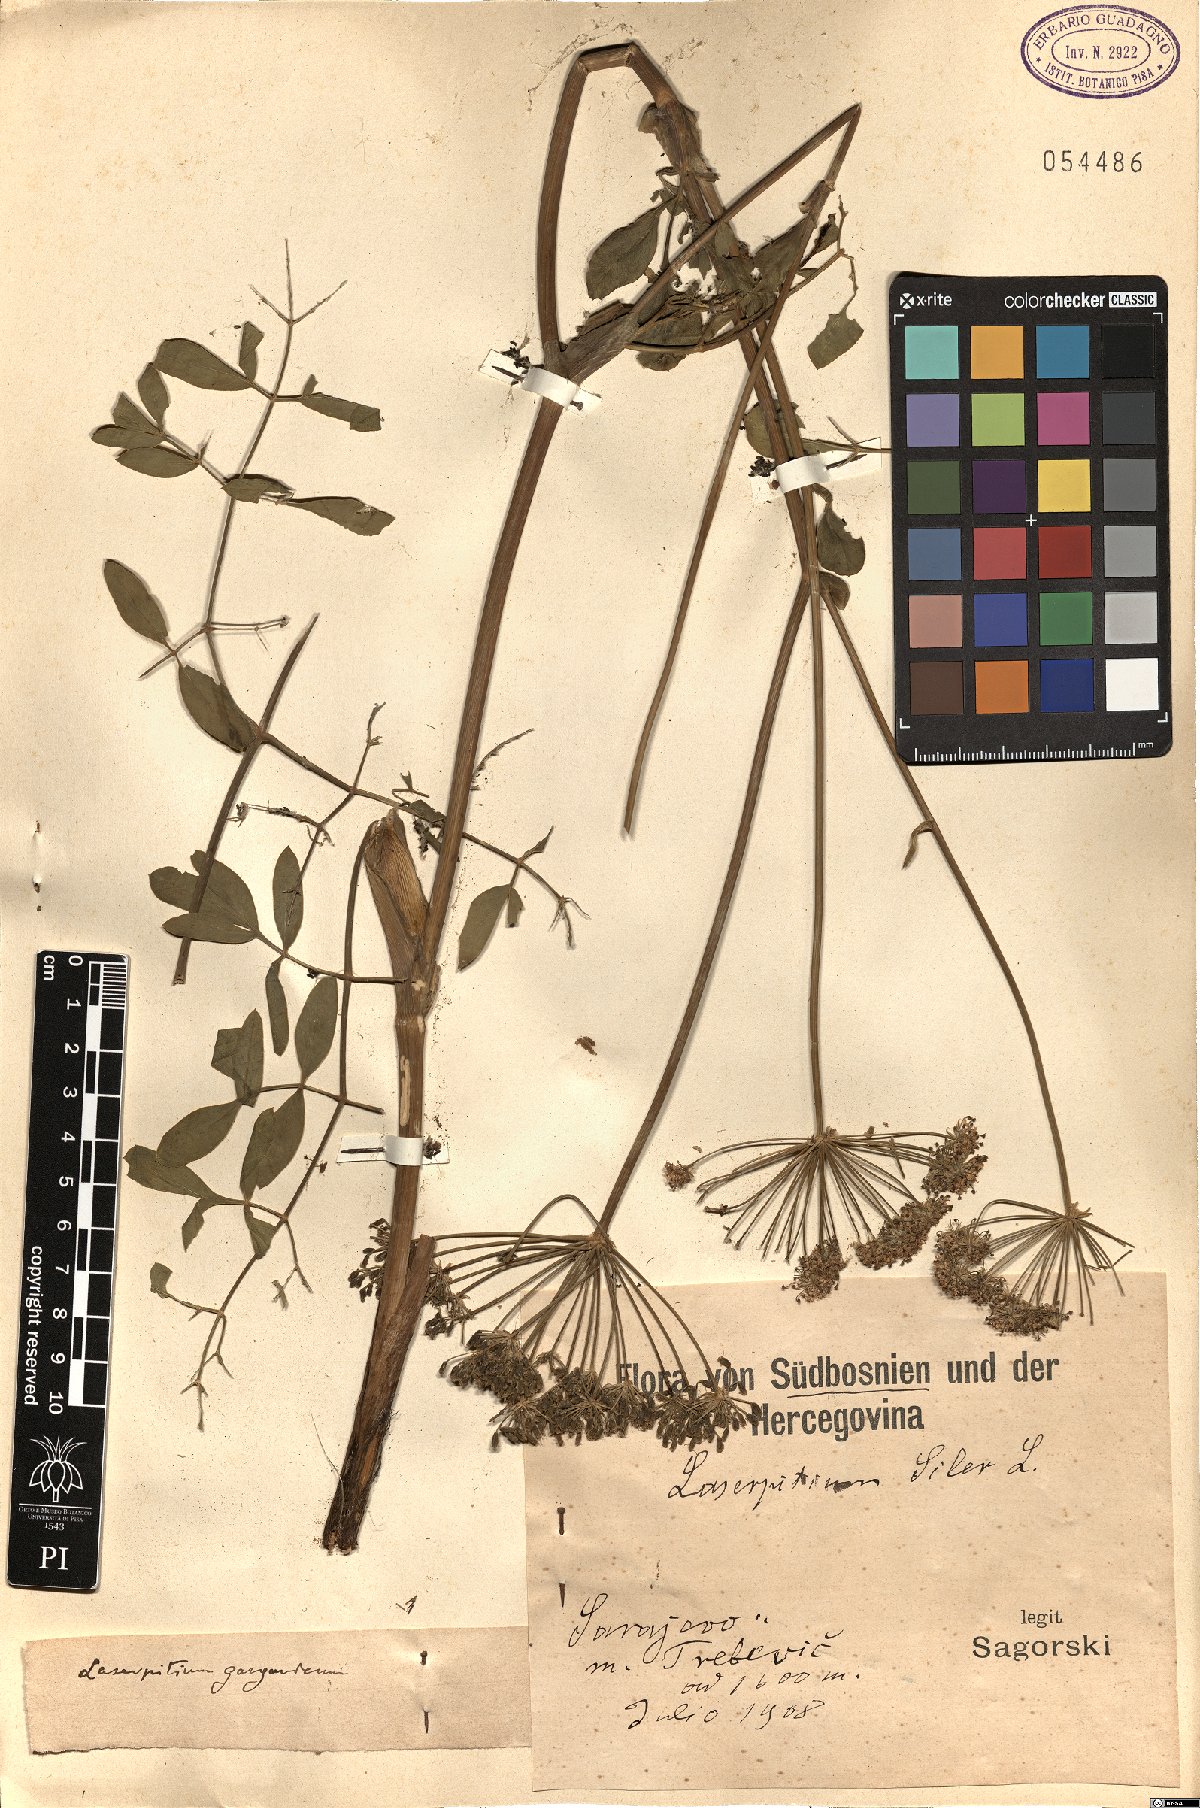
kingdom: Plantae
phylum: Tracheophyta
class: Magnoliopsida
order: Apiales
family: Apiaceae
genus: Siler
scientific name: Siler montanum
